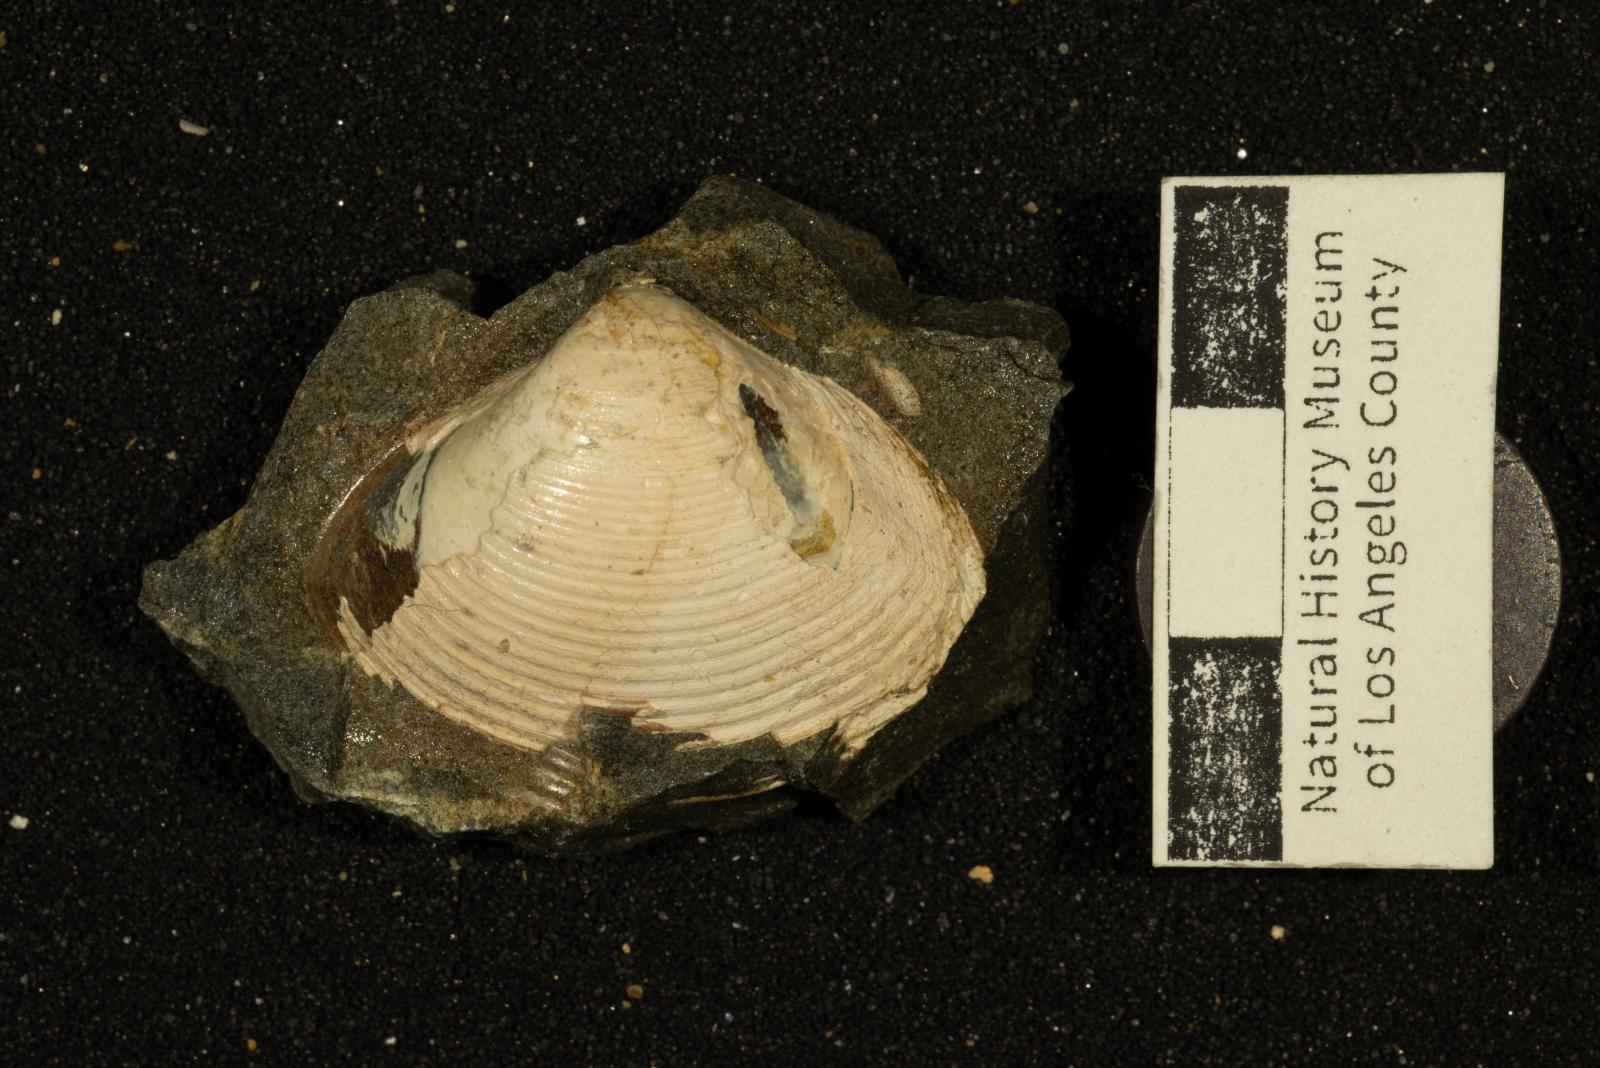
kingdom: Animalia
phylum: Mollusca
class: Bivalvia
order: Venerida
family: Mactridae
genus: Cymbophora
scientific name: Cymbophora Mactra gabbiana
